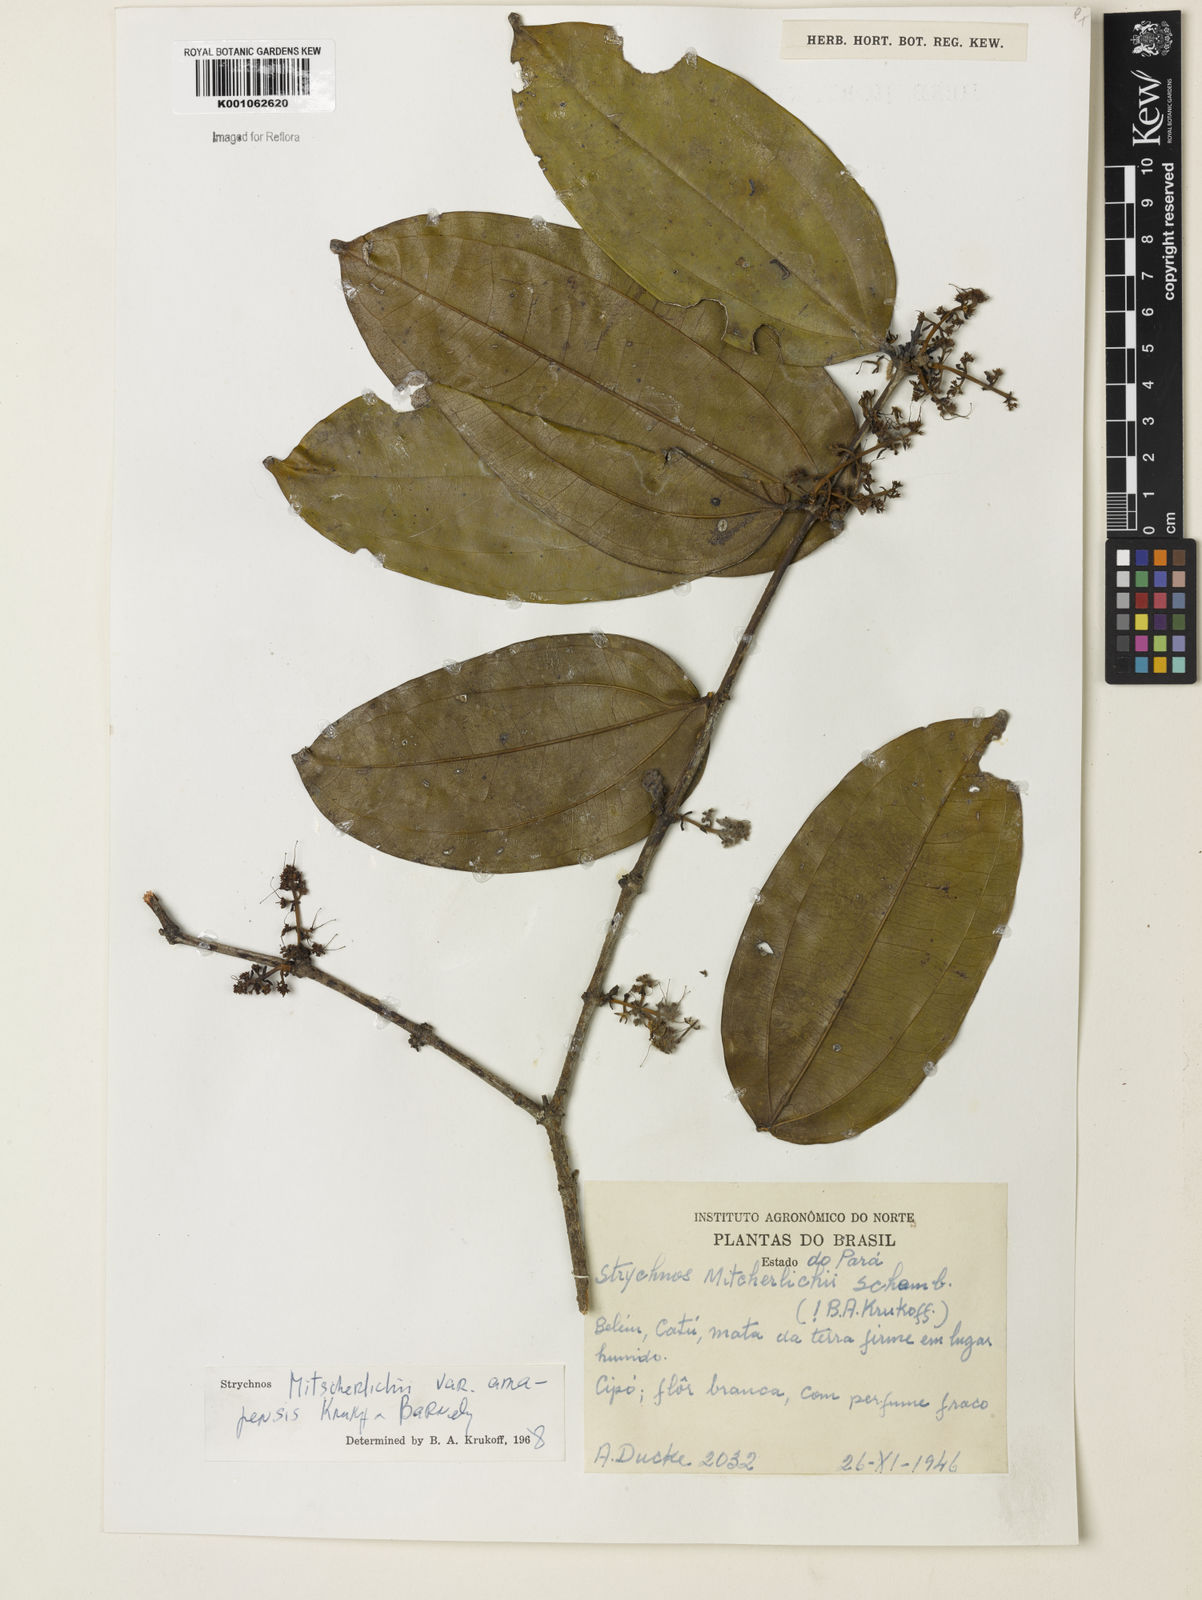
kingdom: Plantae
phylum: Tracheophyta
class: Magnoliopsida
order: Gentianales
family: Loganiaceae
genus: Strychnos
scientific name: Strychnos mitscherlichii
